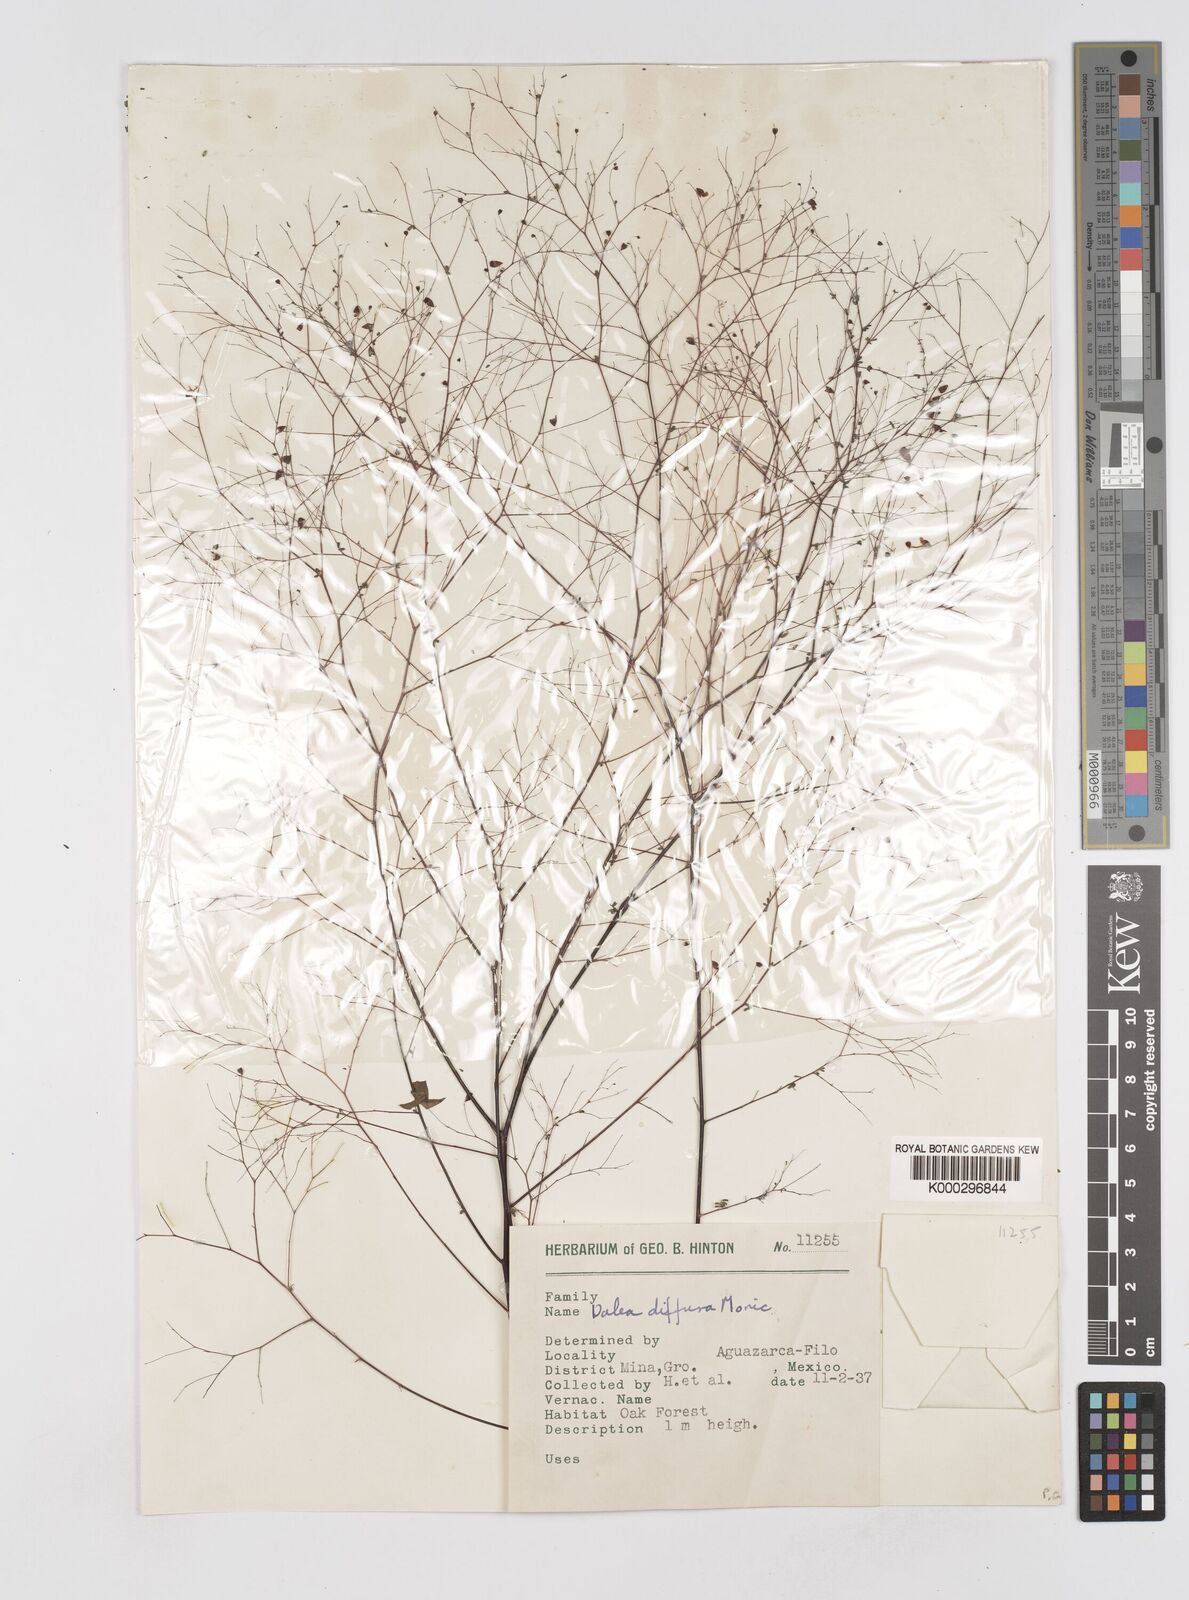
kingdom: Plantae
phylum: Tracheophyta
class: Magnoliopsida
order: Fabales
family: Fabaceae
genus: Marina
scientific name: Marina diffusa
